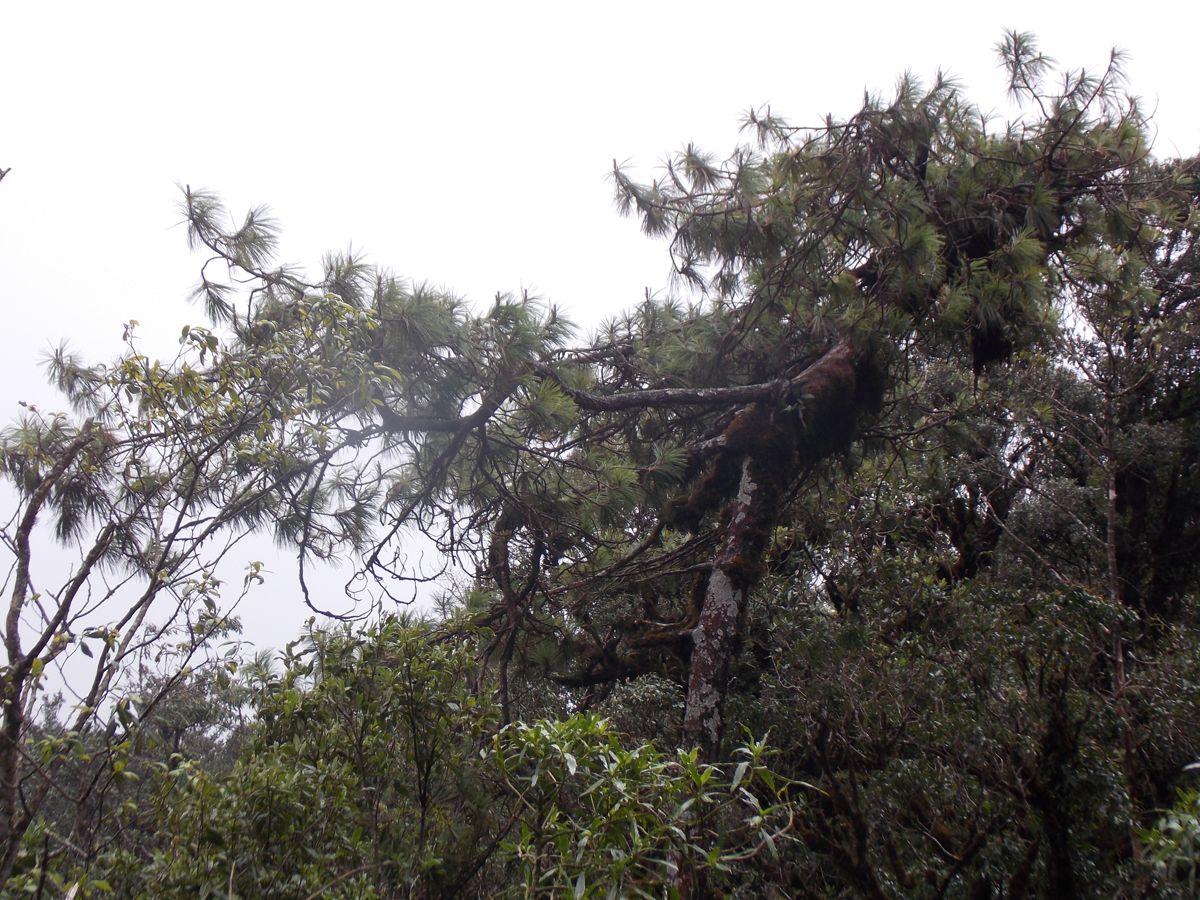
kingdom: Plantae
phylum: Tracheophyta
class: Pinopsida
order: Pinales
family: Pinaceae
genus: Pinus
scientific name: Pinus tecunumanii
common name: Schwerdtfeger's pine
